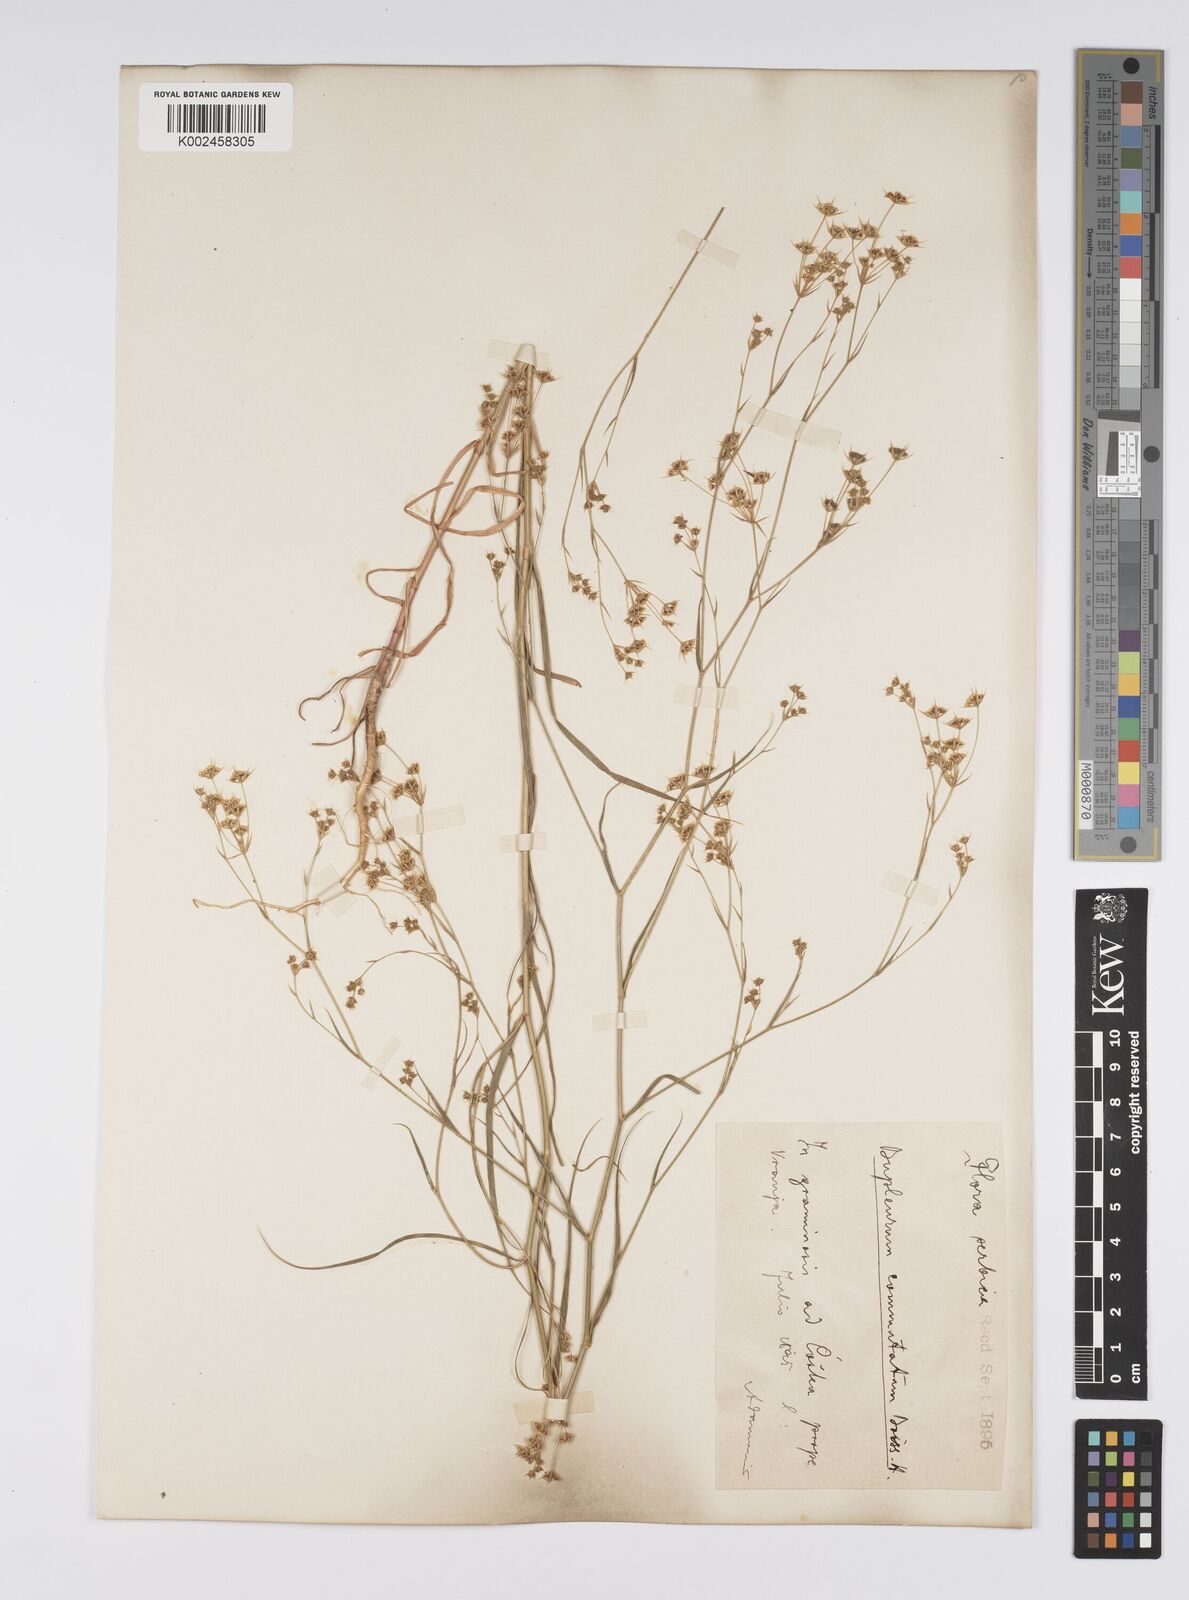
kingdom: Plantae
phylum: Tracheophyta
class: Magnoliopsida
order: Apiales
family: Apiaceae
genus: Bupleurum
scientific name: Bupleurum commutatum
